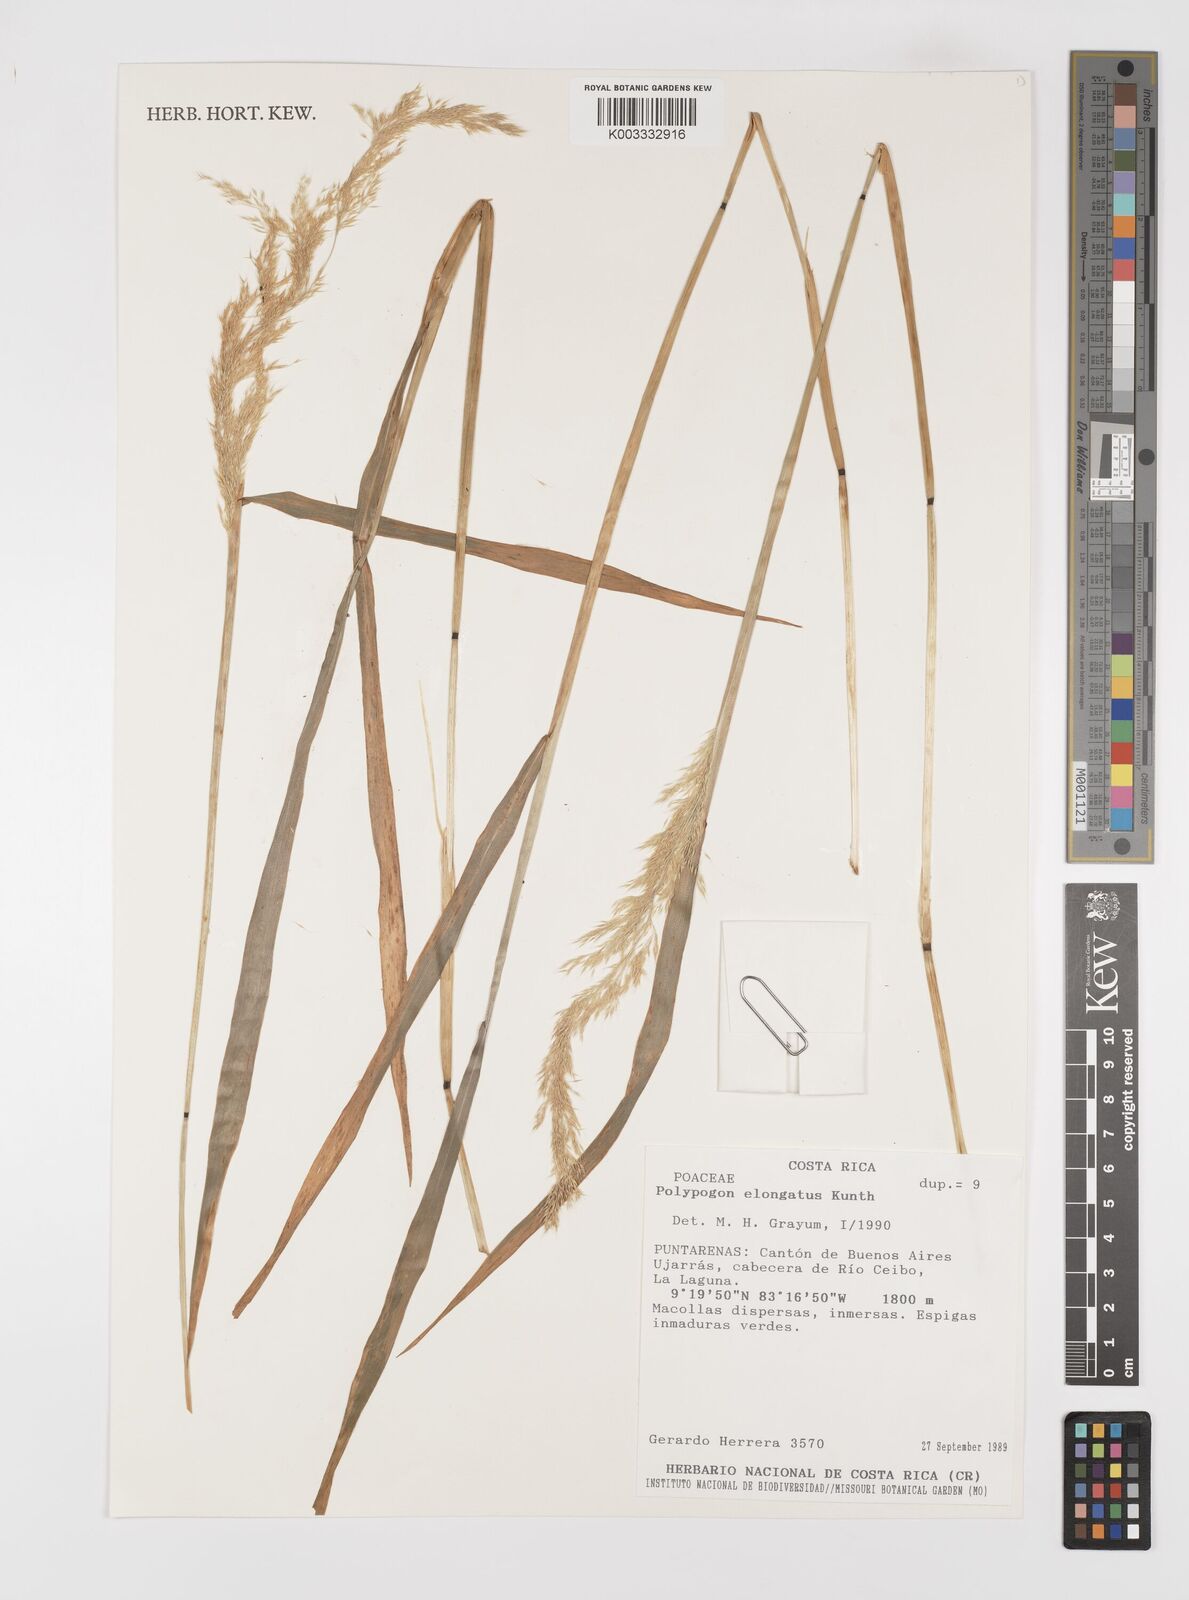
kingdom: Plantae
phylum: Tracheophyta
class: Liliopsida
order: Poales
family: Poaceae
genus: Polypogon
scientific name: Polypogon elongatus
